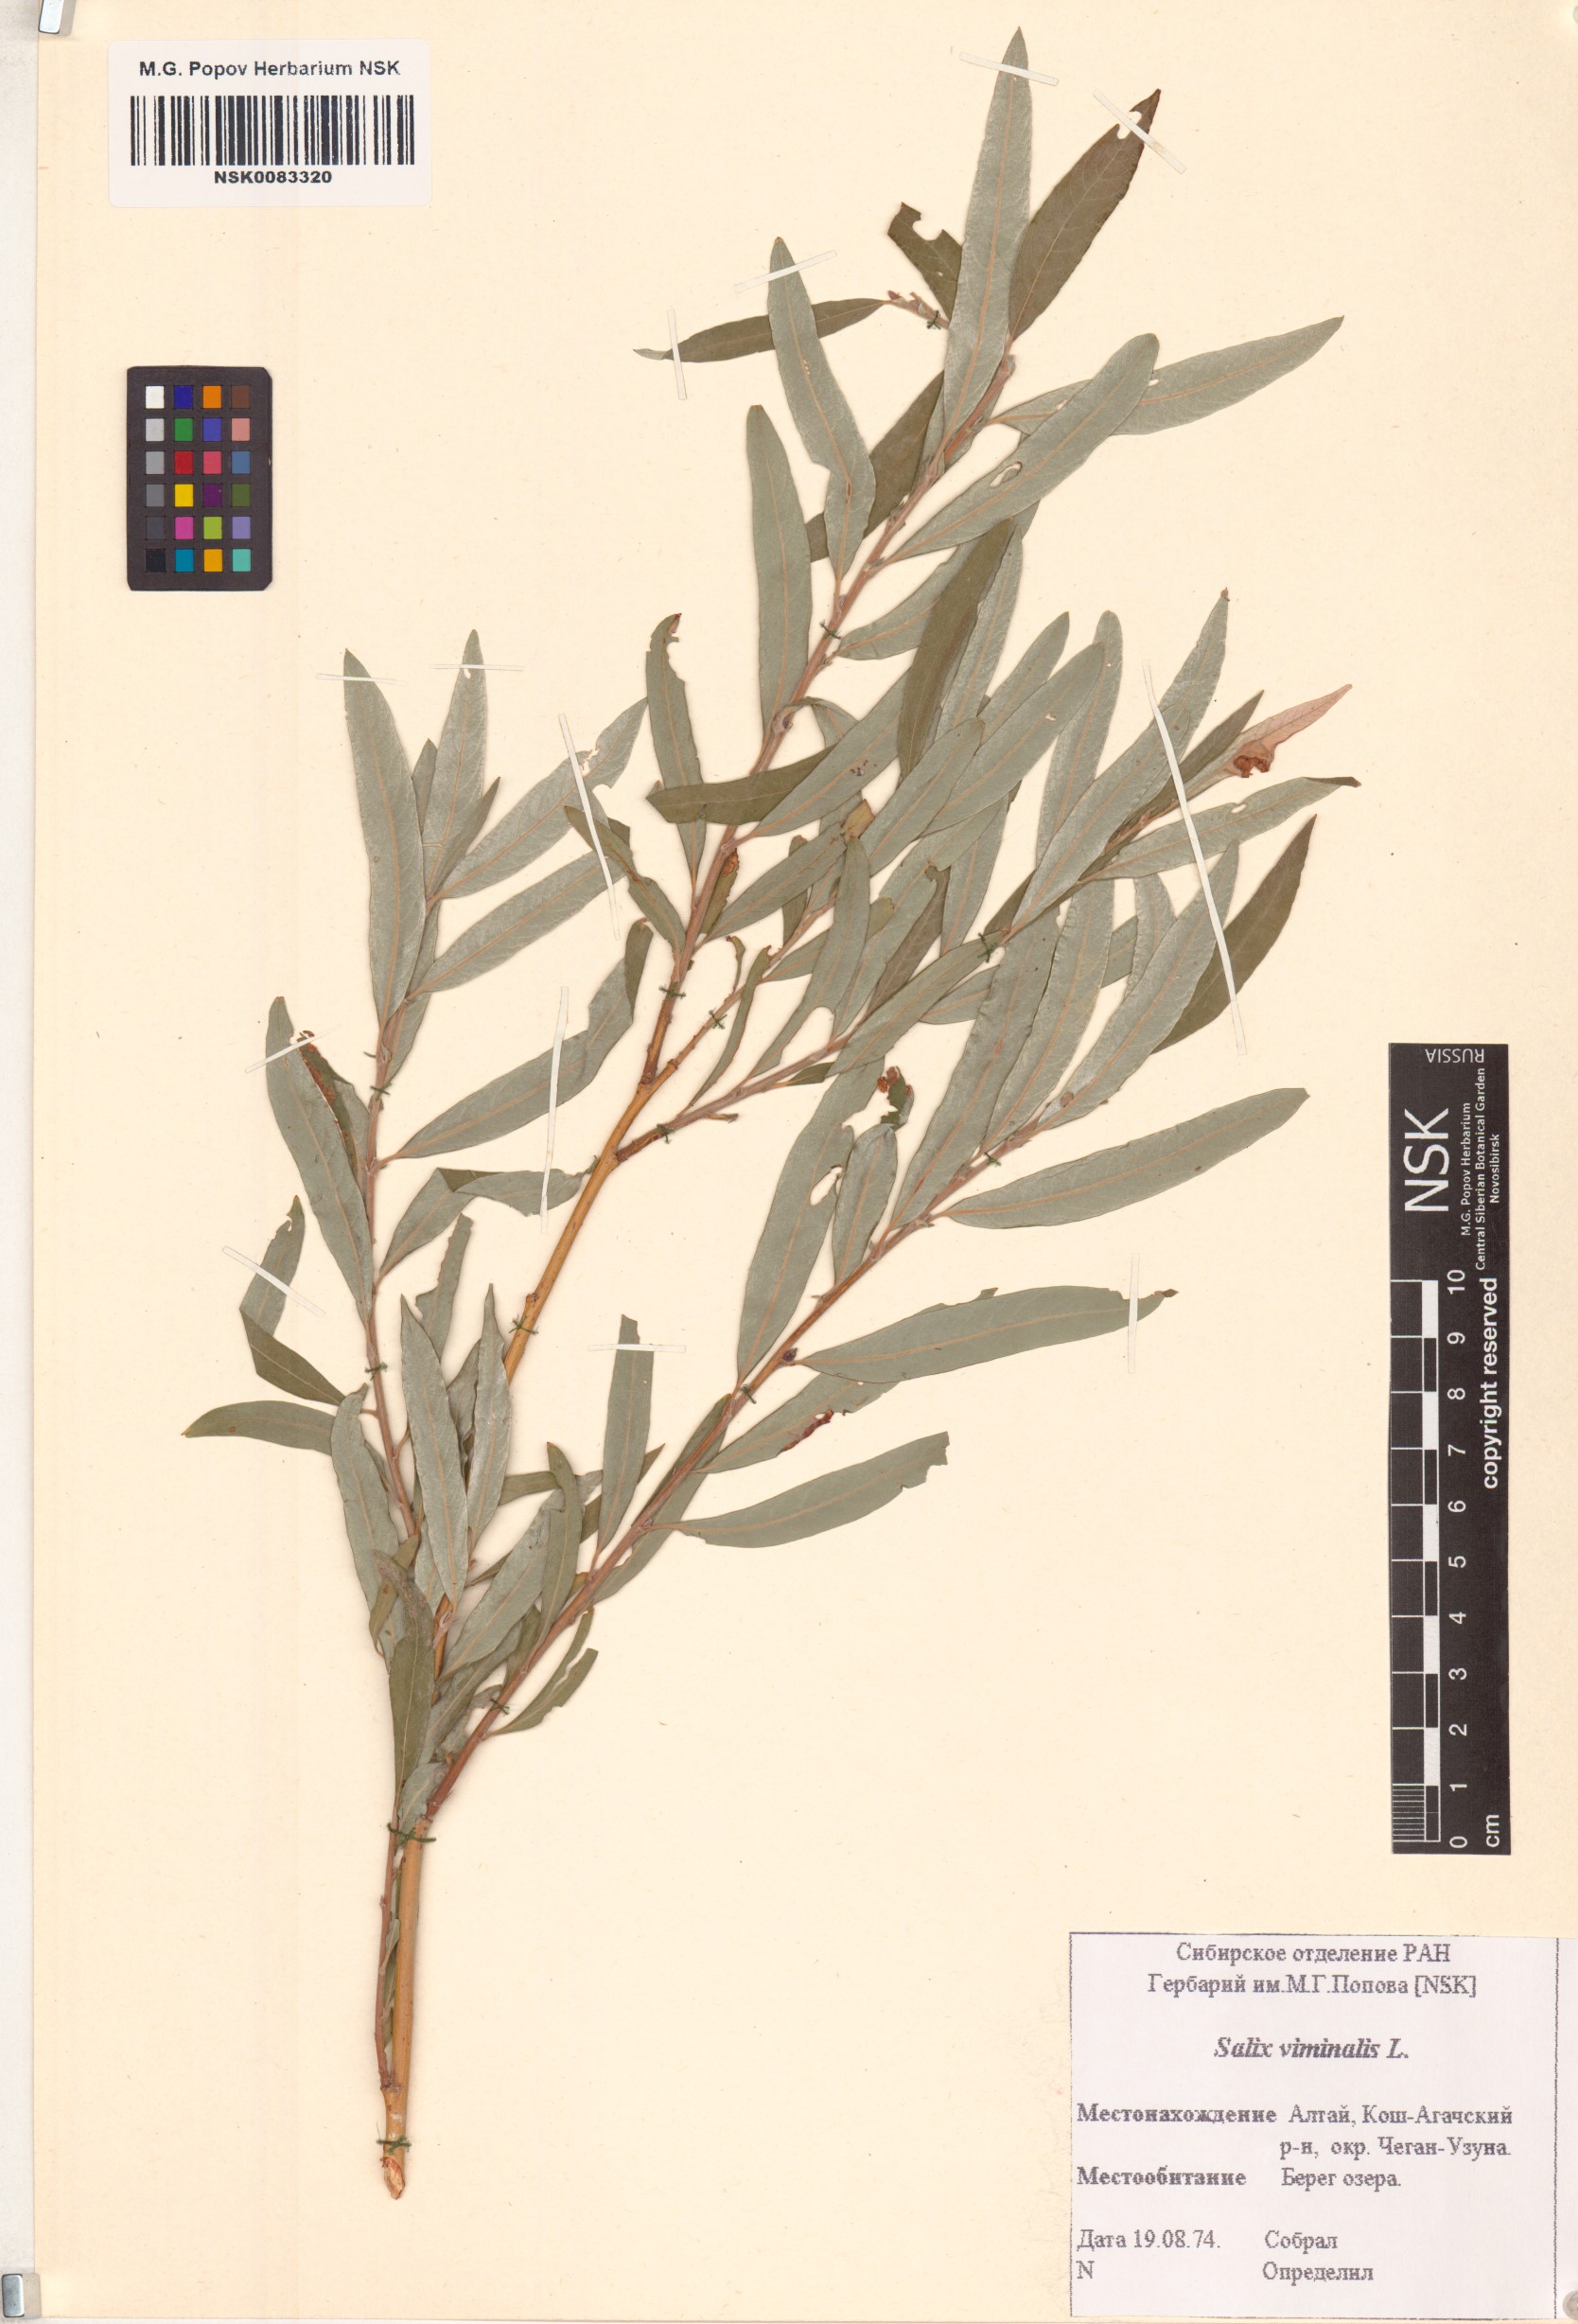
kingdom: Plantae
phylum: Tracheophyta
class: Magnoliopsida
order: Malpighiales
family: Salicaceae
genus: Salix
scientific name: Salix viminalis
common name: Osier
